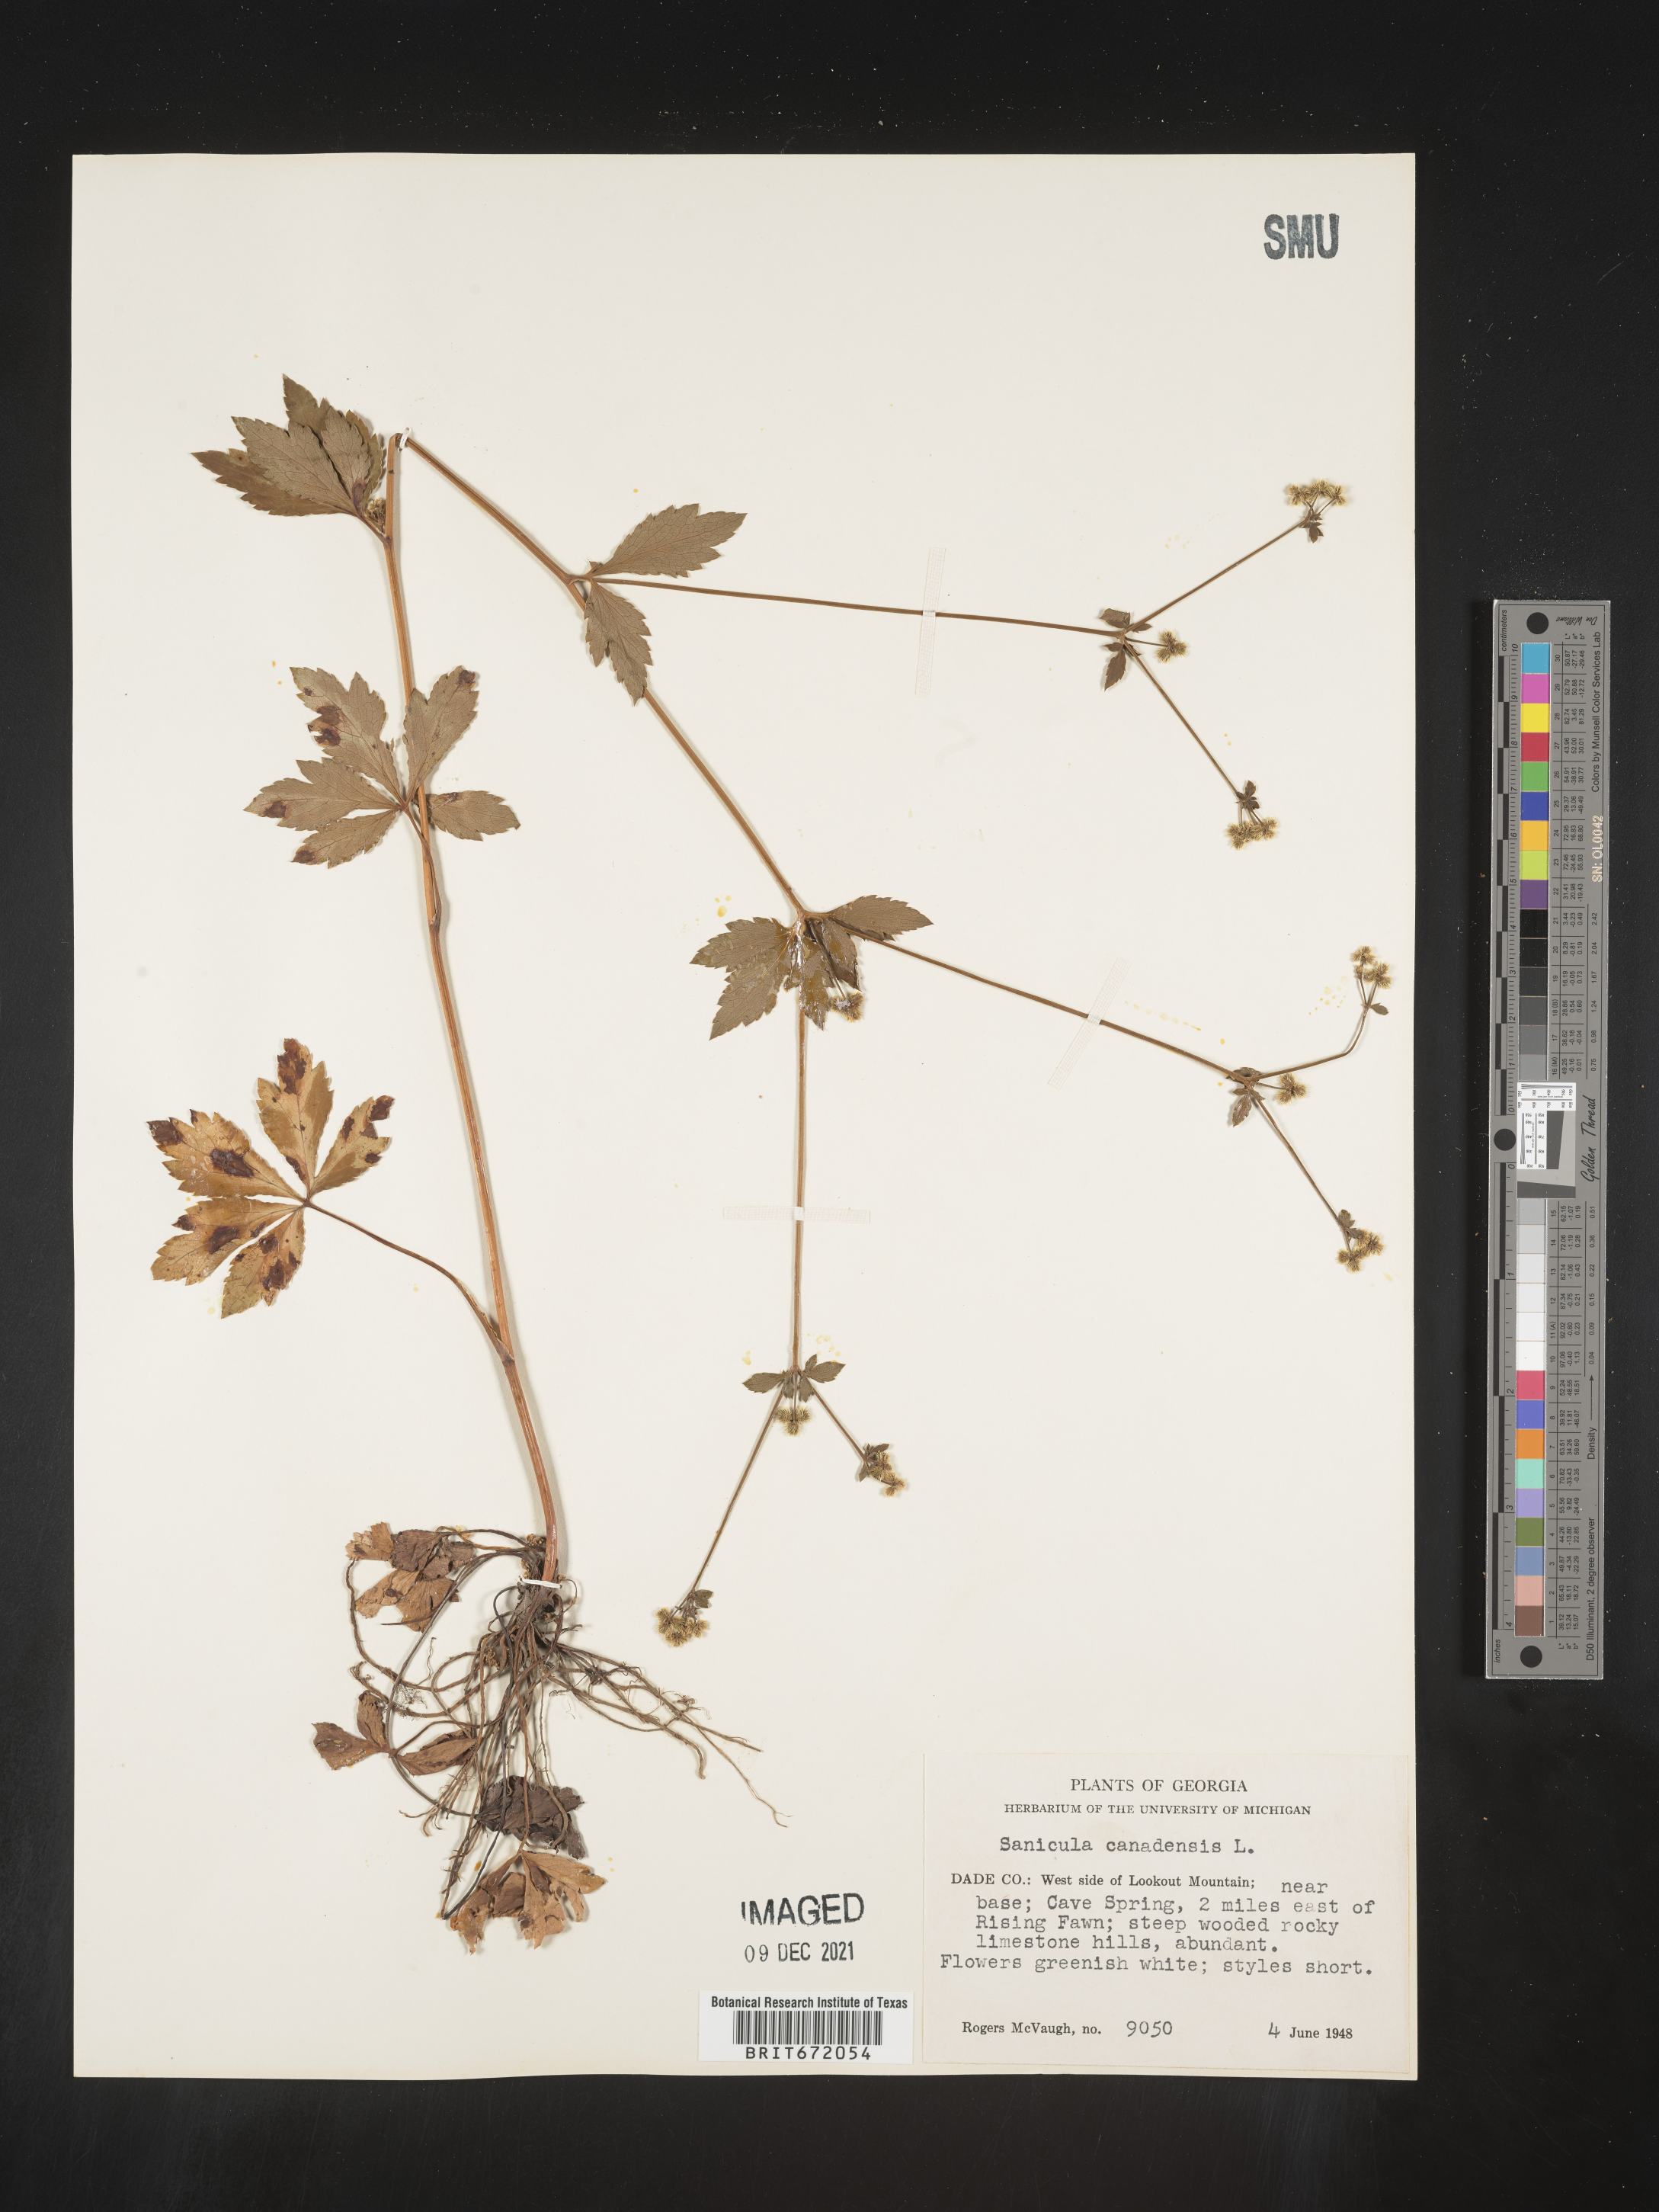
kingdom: Plantae
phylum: Tracheophyta
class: Magnoliopsida
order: Apiales
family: Apiaceae
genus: Sanicula
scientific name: Sanicula canadensis
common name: Canada sanicle
